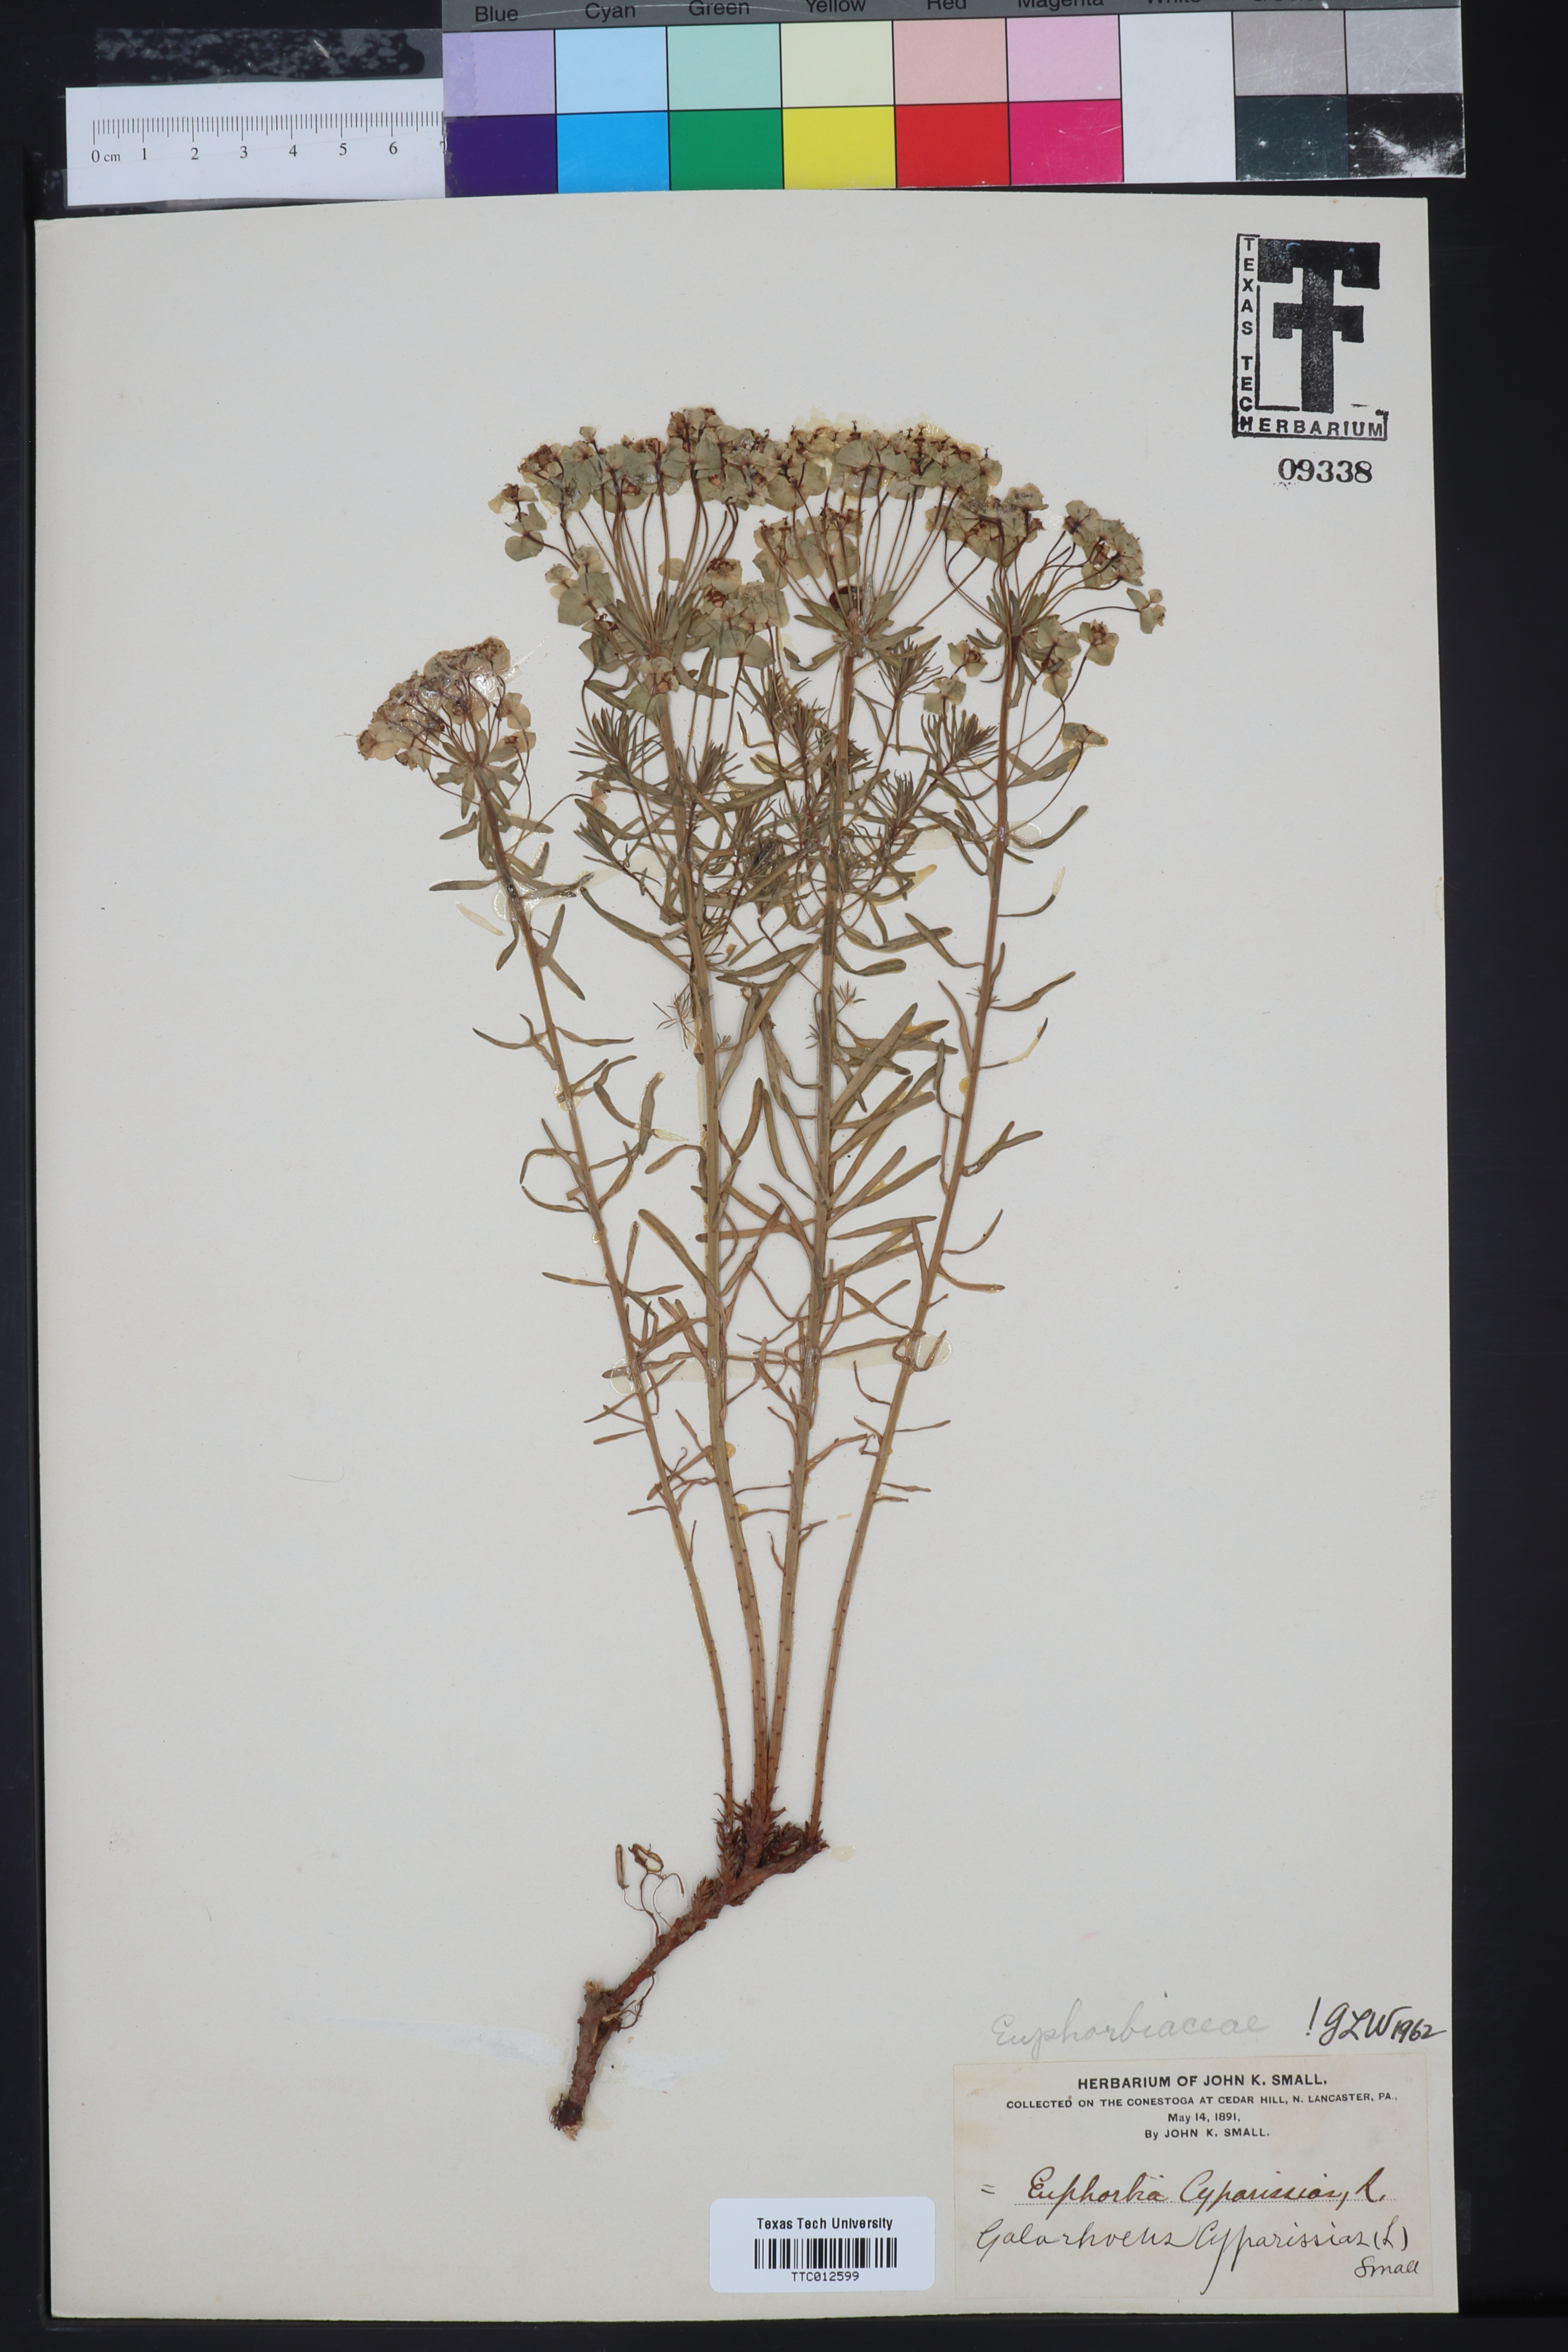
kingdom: Plantae
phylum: Tracheophyta
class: Magnoliopsida
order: Malpighiales
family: Euphorbiaceae
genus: Euphorbia
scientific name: Euphorbia cyparissias
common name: Cypress spurge
